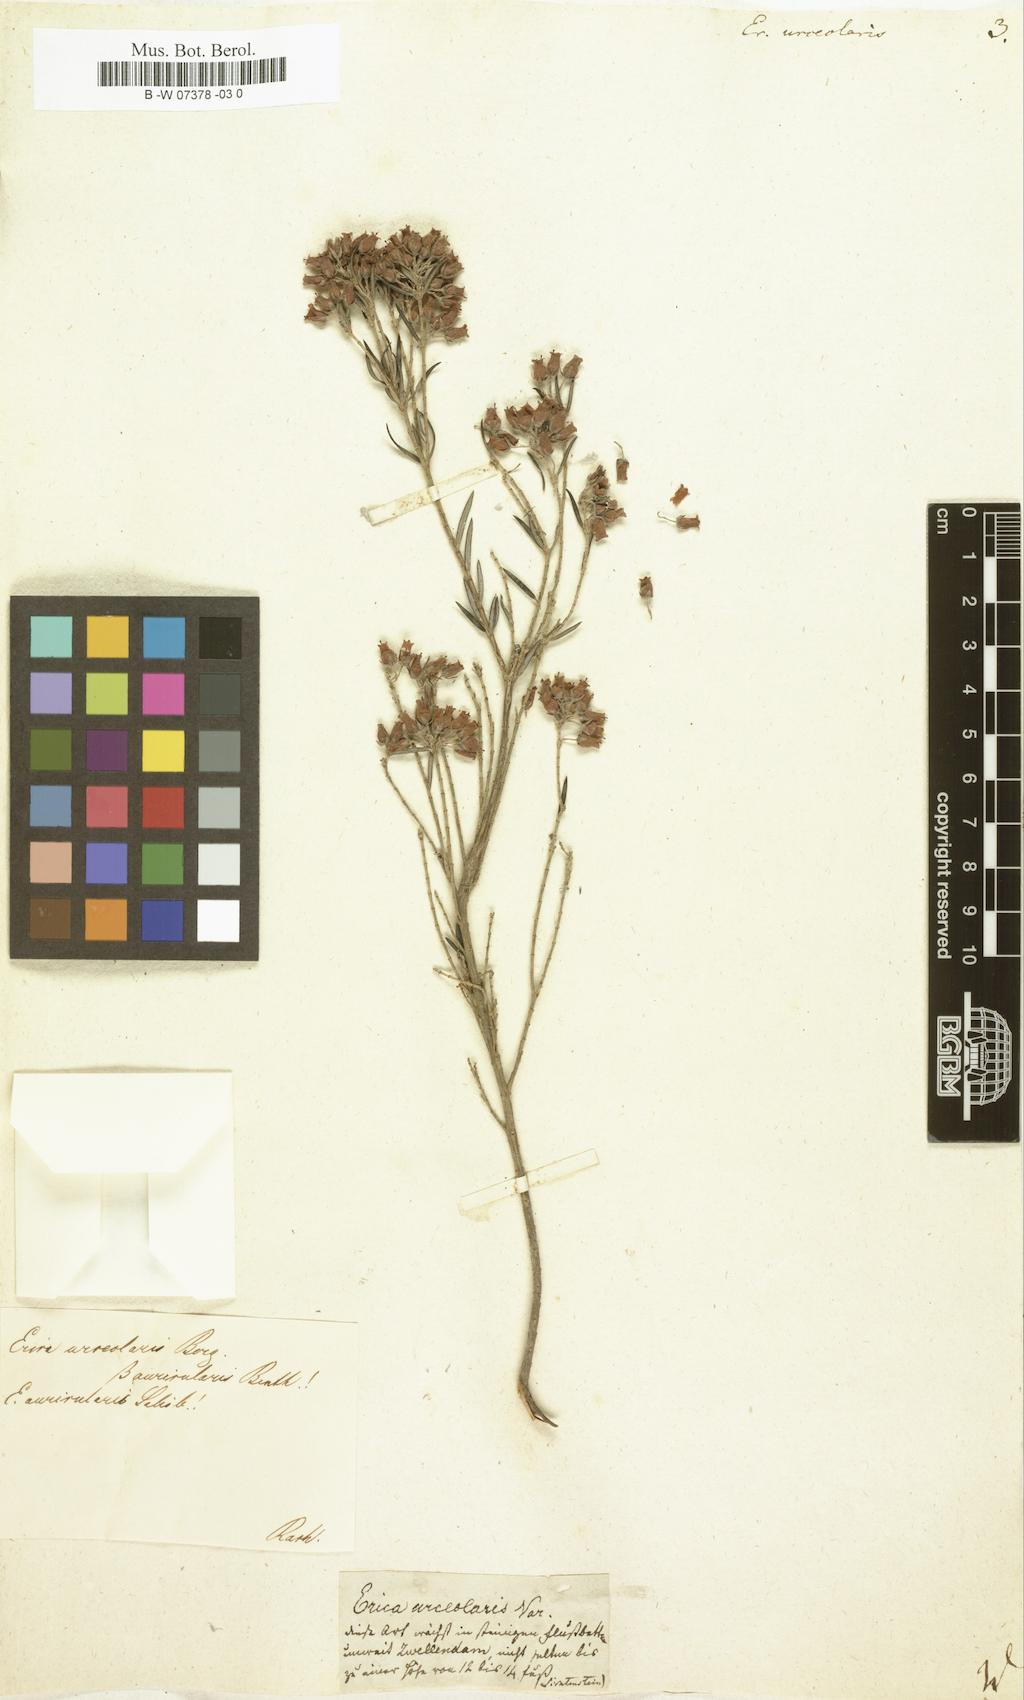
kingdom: Plantae
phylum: Tracheophyta
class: Magnoliopsida
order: Ericales
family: Ericaceae
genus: Erica
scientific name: Erica
